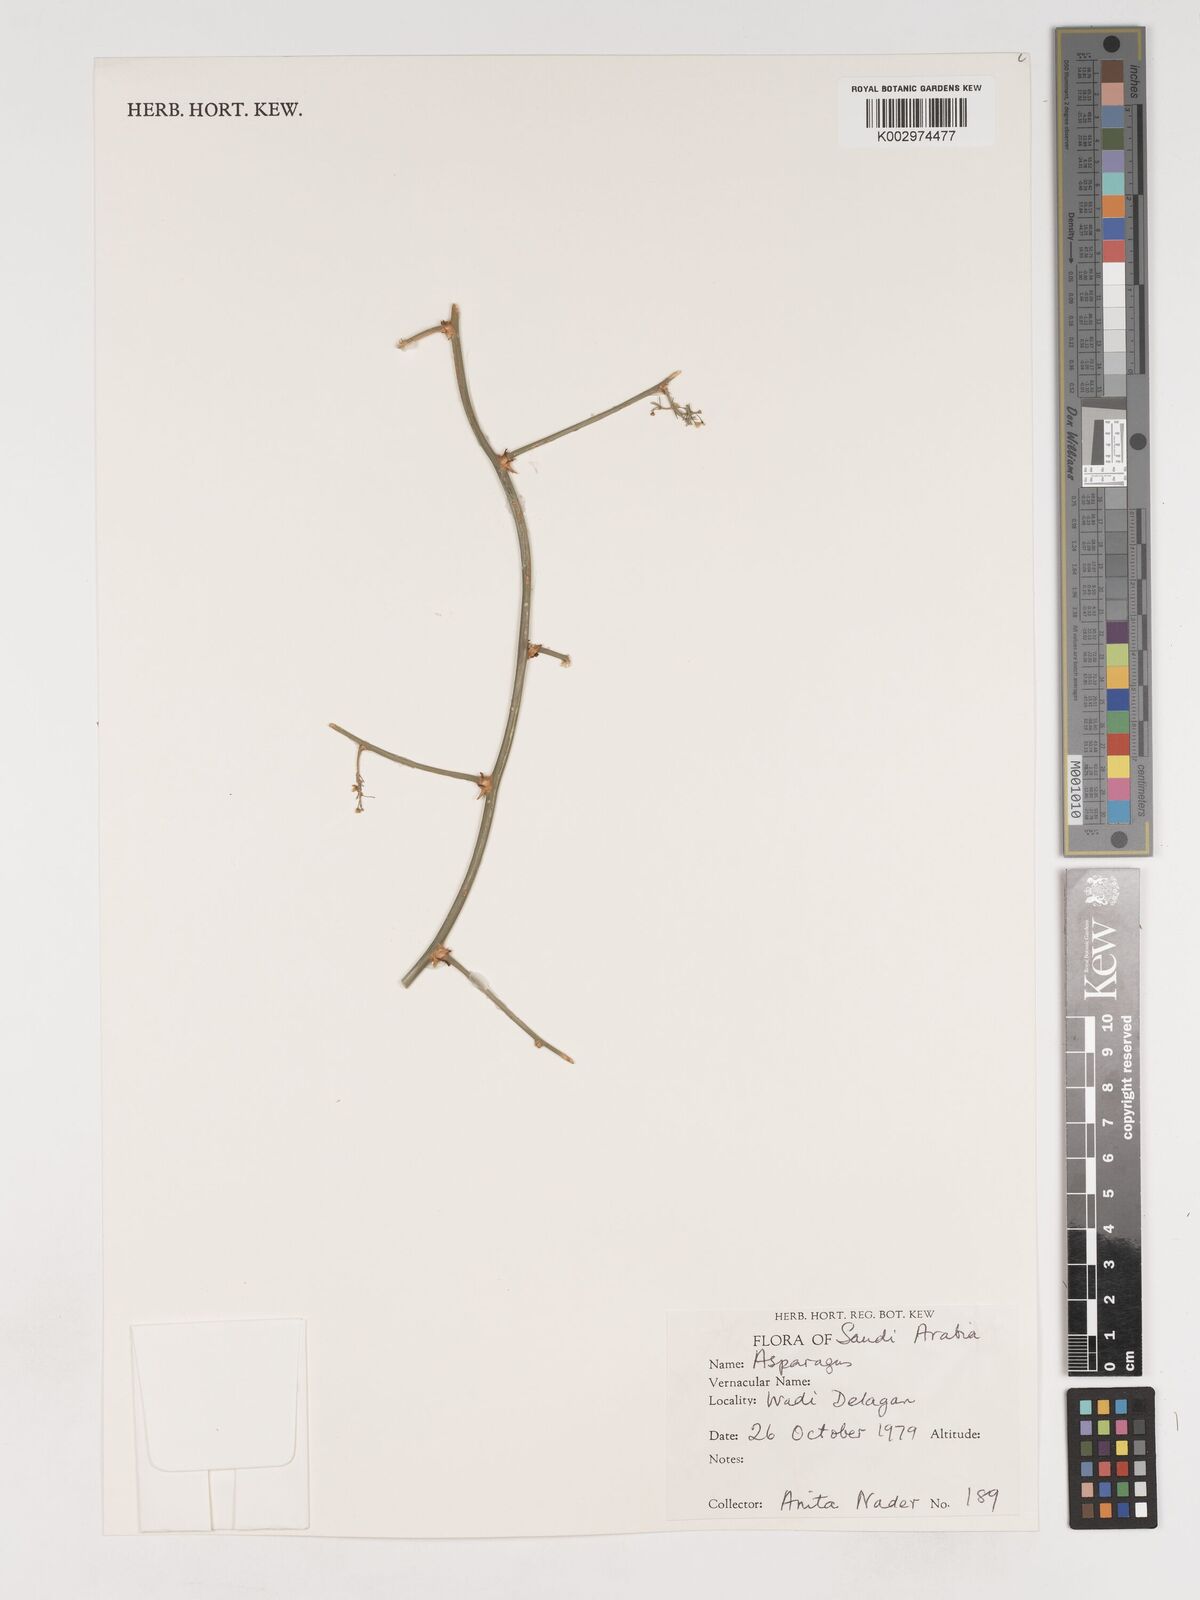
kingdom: Plantae
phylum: Tracheophyta
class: Liliopsida
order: Asparagales
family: Asparagaceae
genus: Asparagus
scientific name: Asparagus
